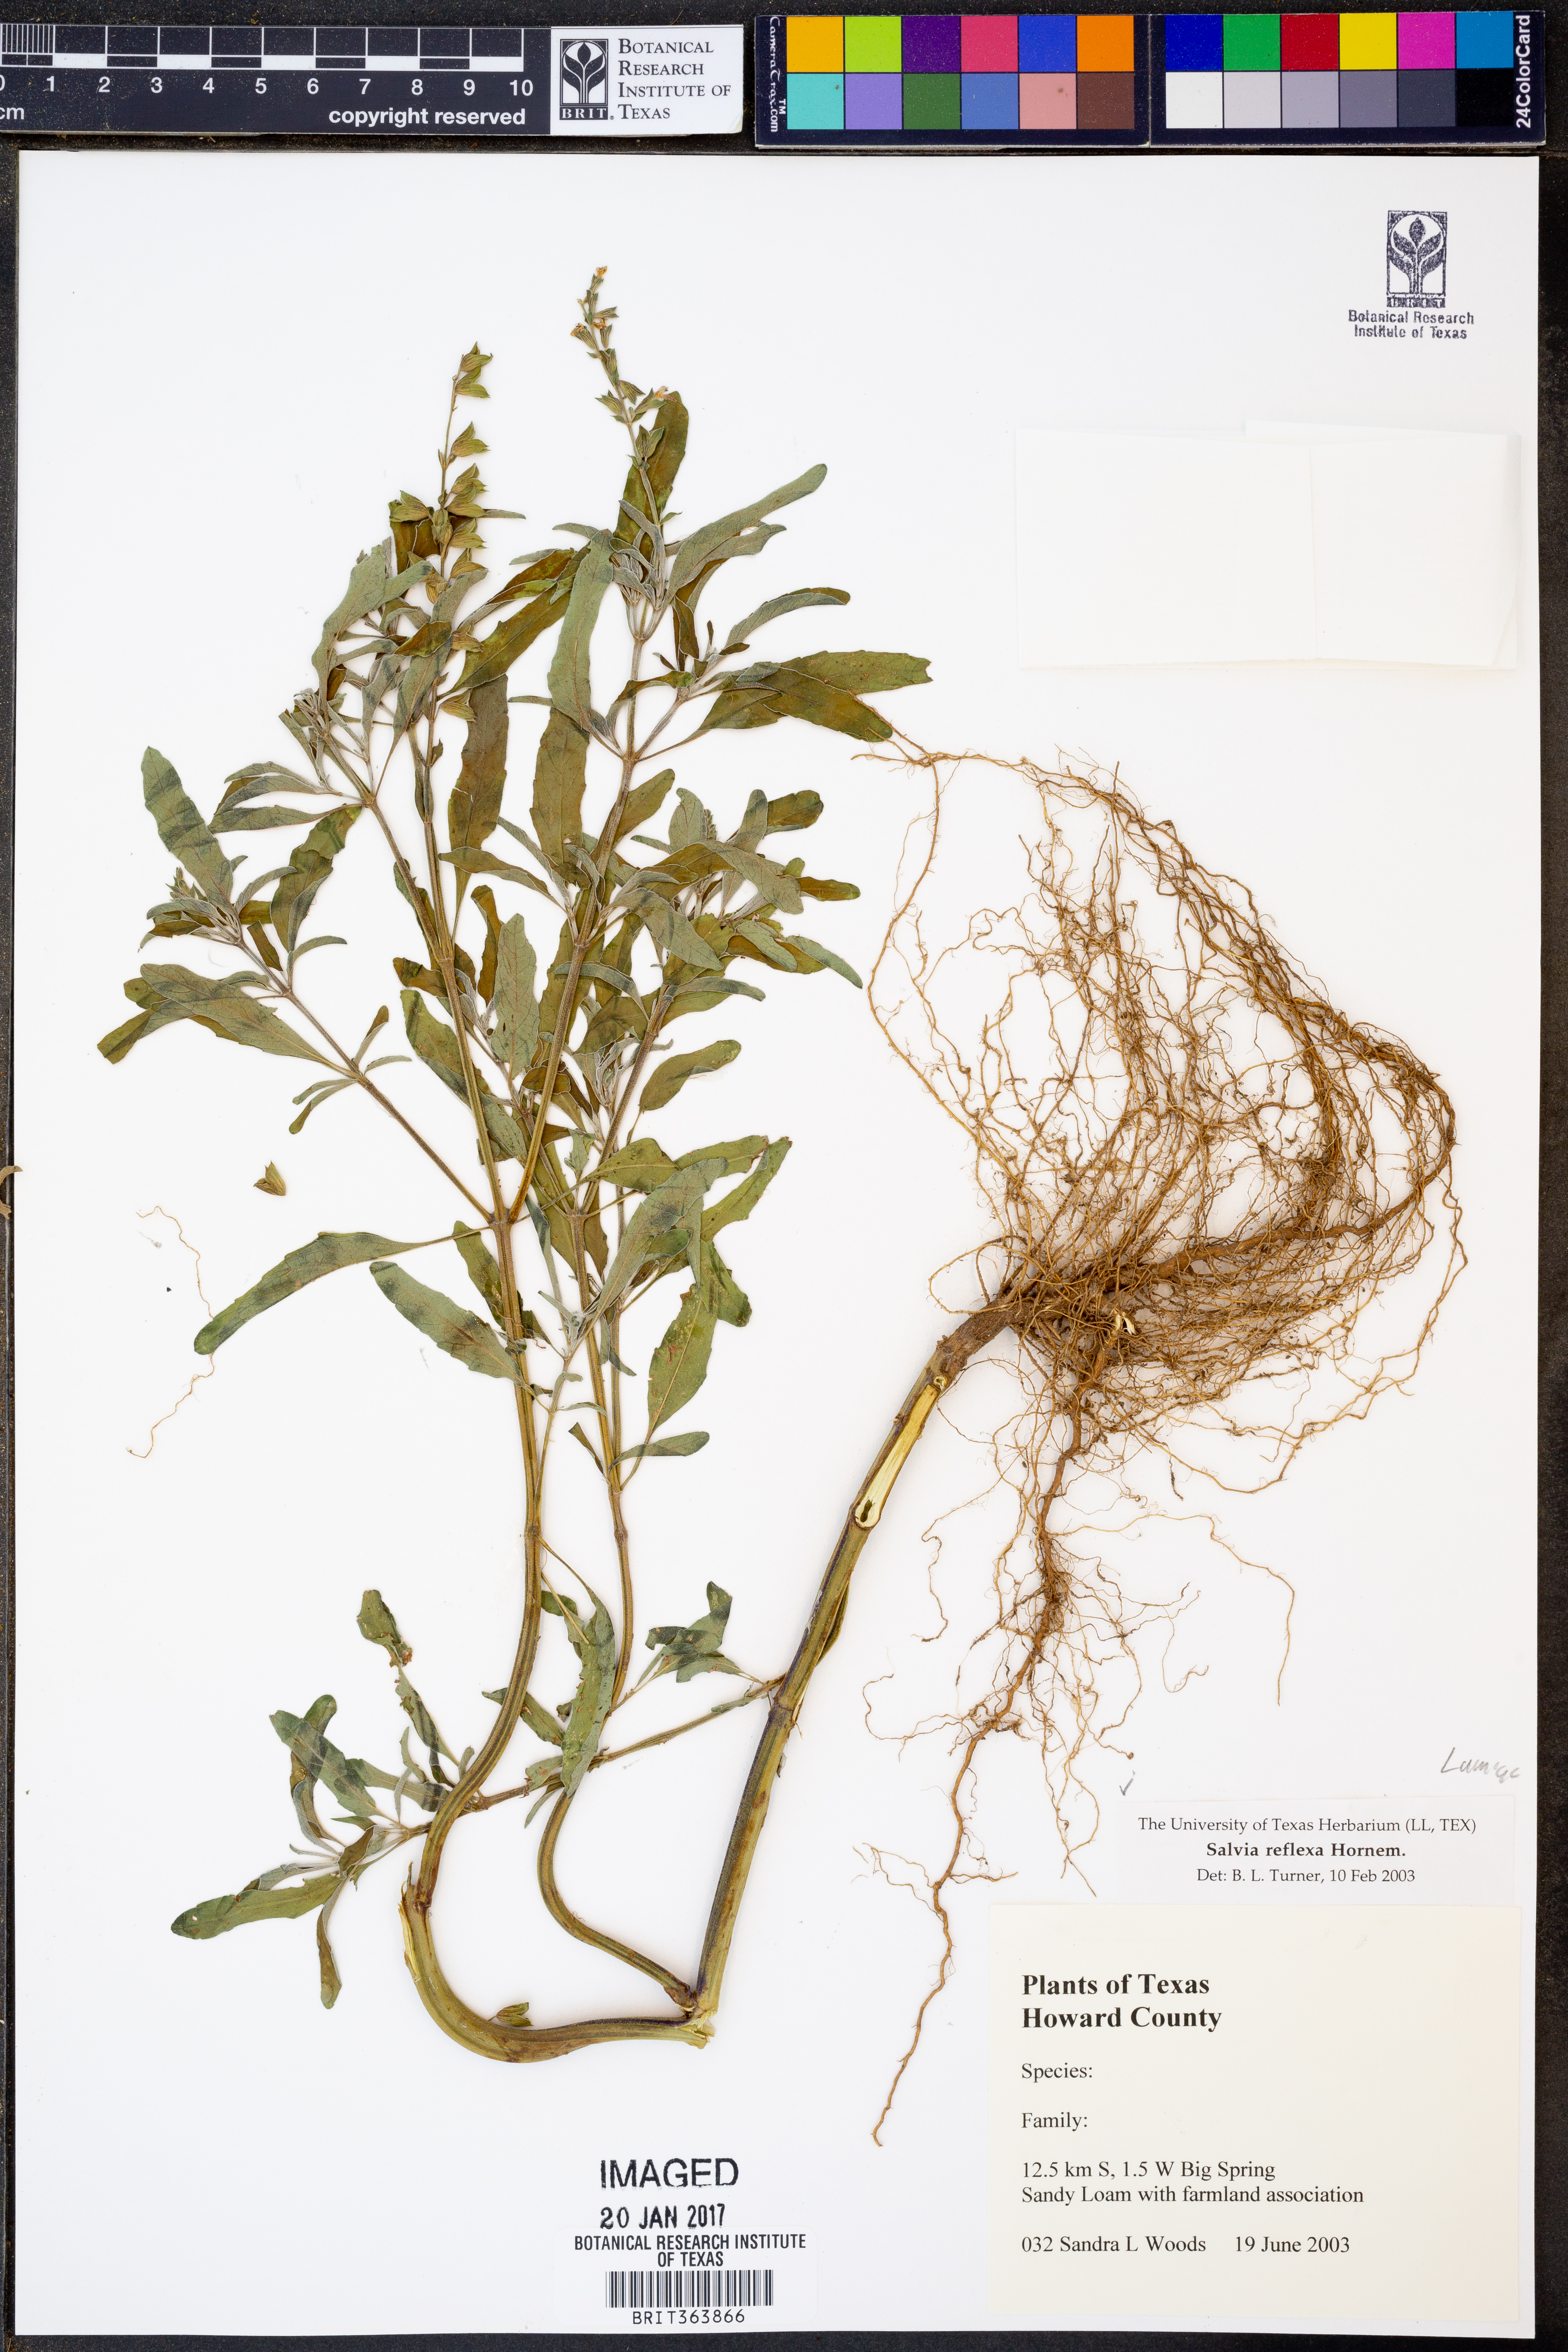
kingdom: Plantae
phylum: Tracheophyta
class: Magnoliopsida
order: Lamiales
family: Lamiaceae
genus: Salvia
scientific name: Salvia reflexa
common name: Mintweed
